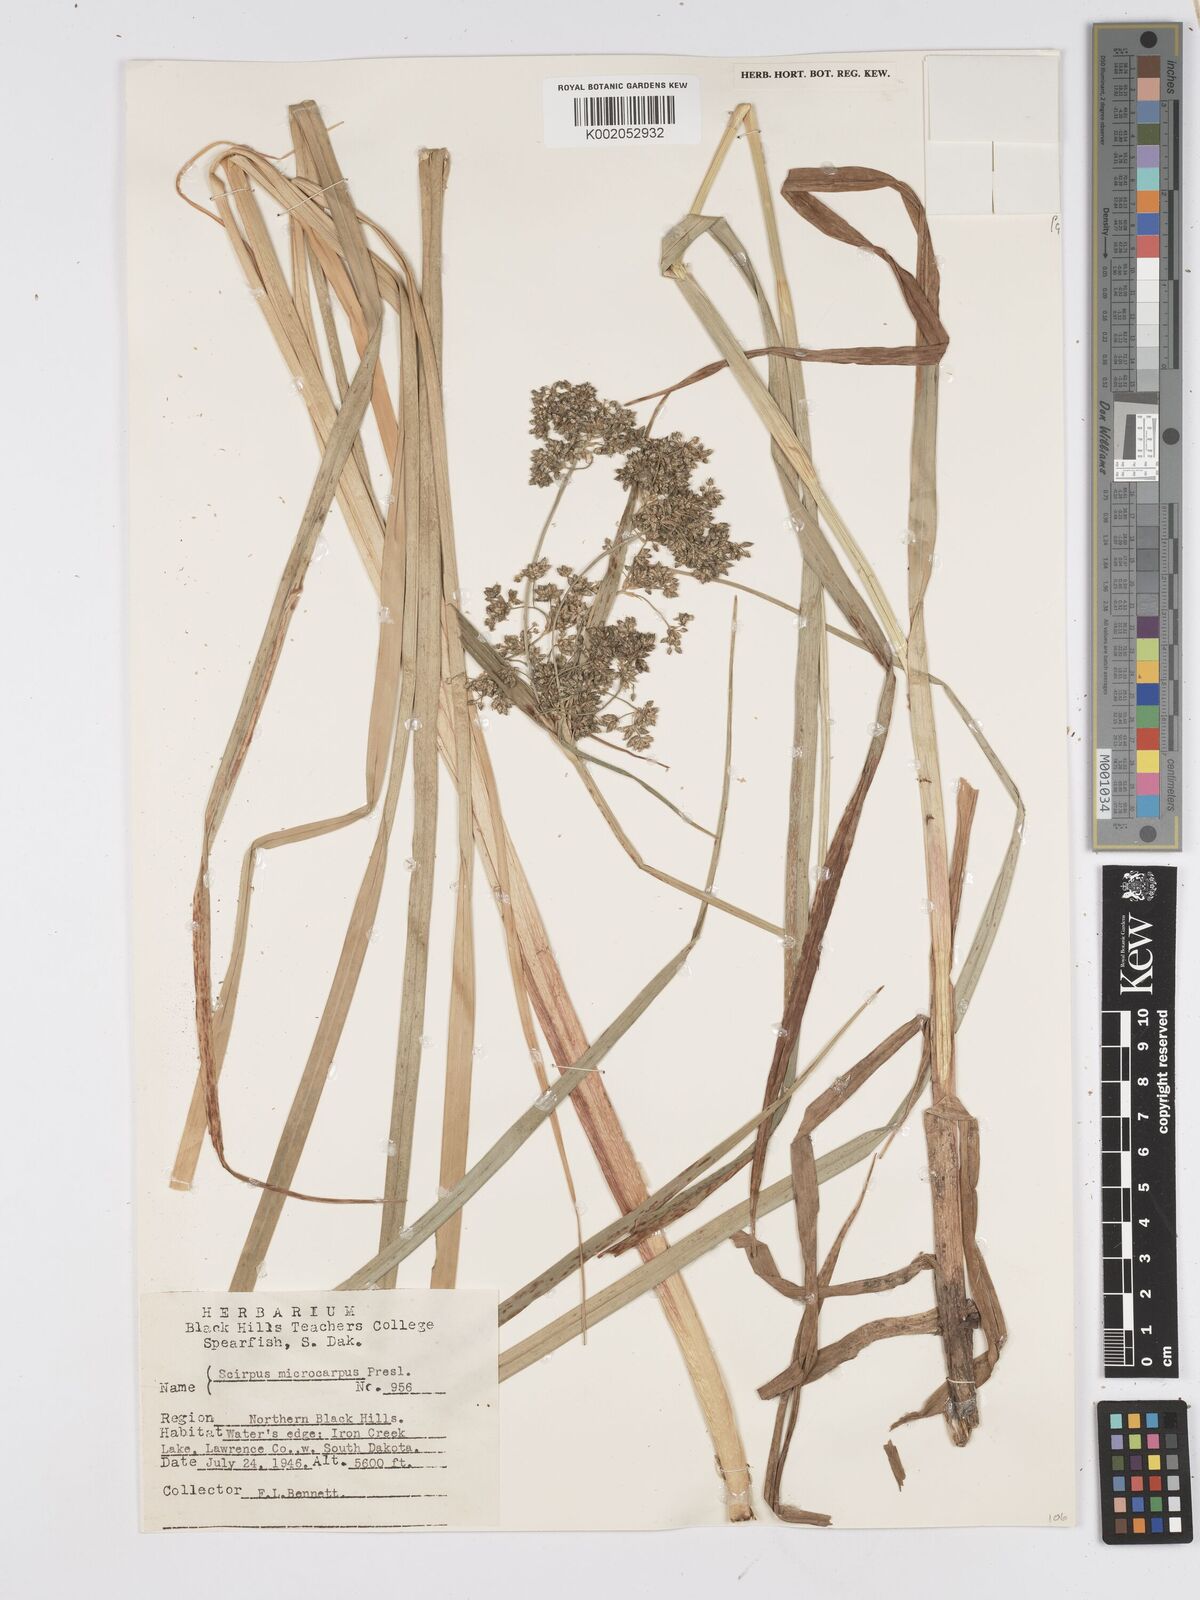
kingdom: Plantae
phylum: Tracheophyta
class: Liliopsida
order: Poales
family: Cyperaceae
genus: Scirpus
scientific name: Scirpus sylvaticus
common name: Wood club-rush
